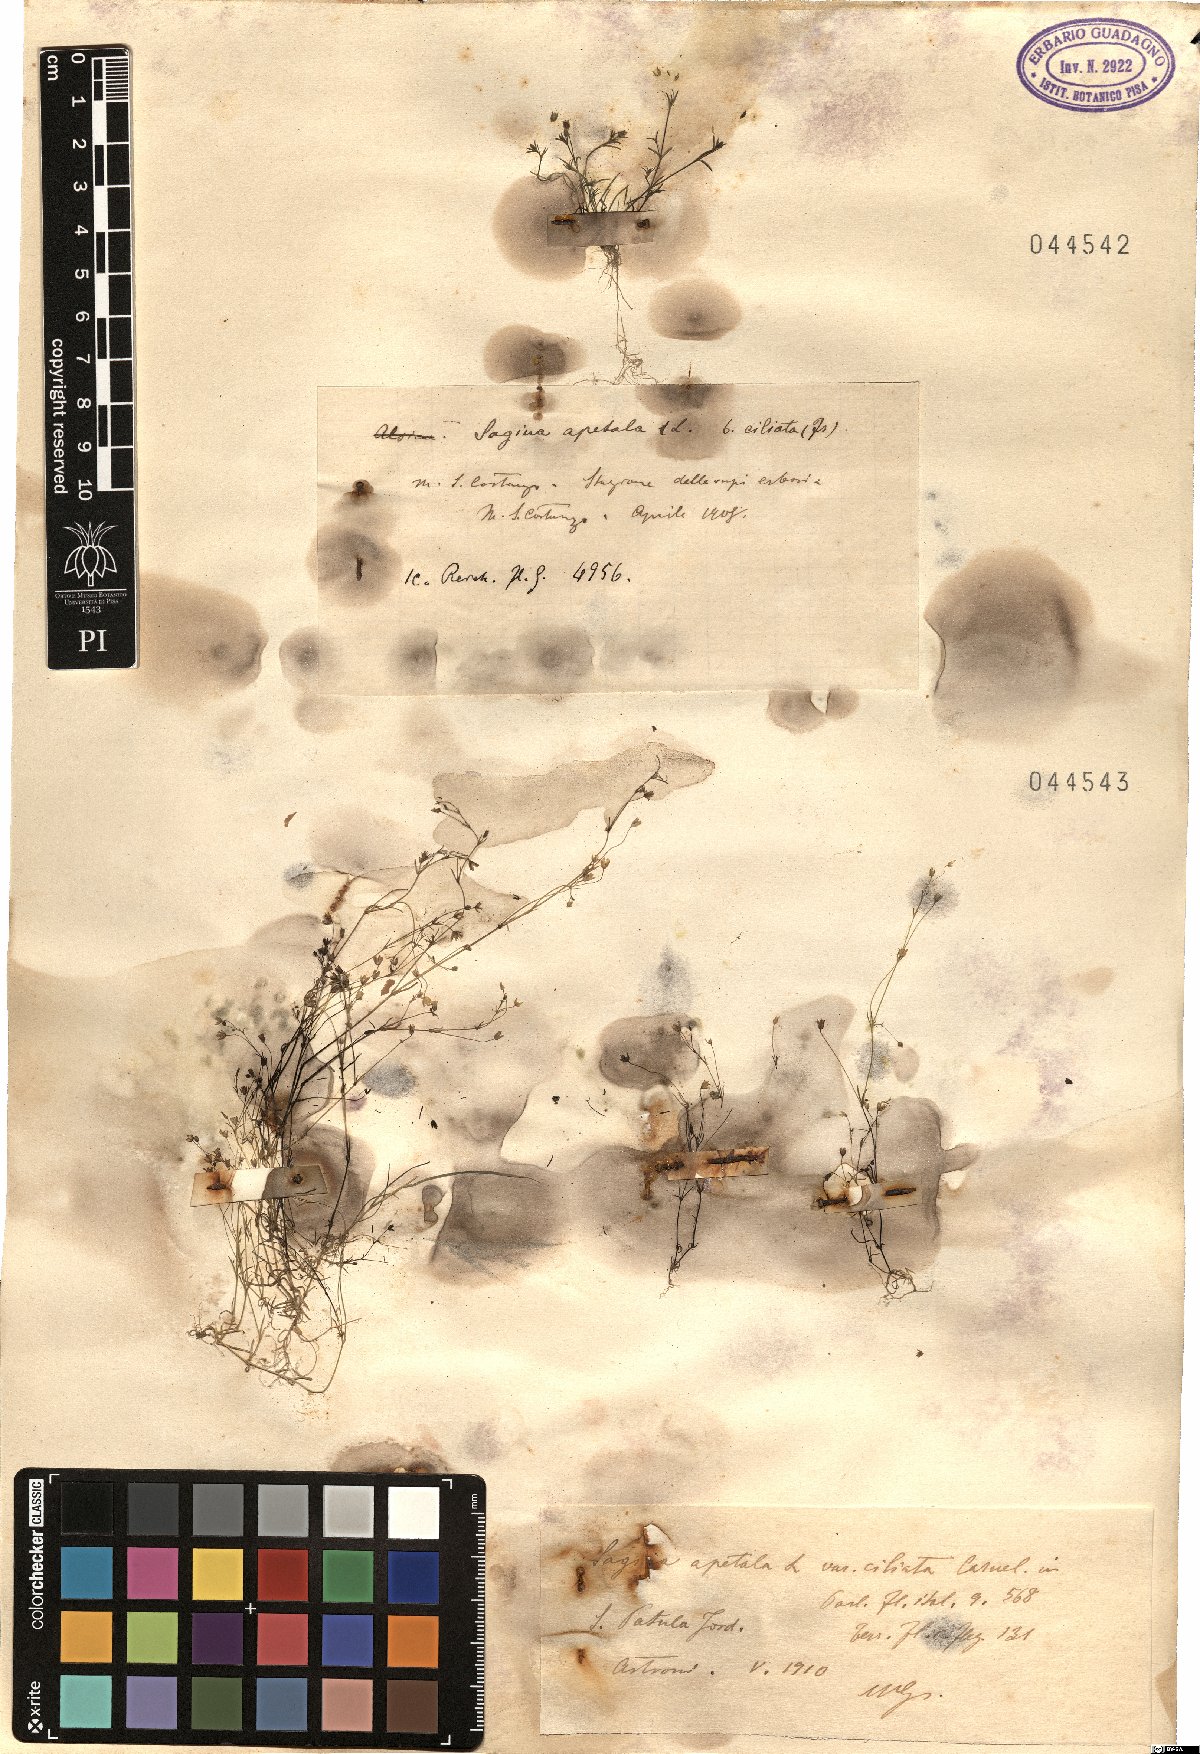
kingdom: Plantae
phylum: Tracheophyta
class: Magnoliopsida
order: Caryophyllales
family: Caryophyllaceae
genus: Sagina
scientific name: Sagina apetala
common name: Annual pearlwort
